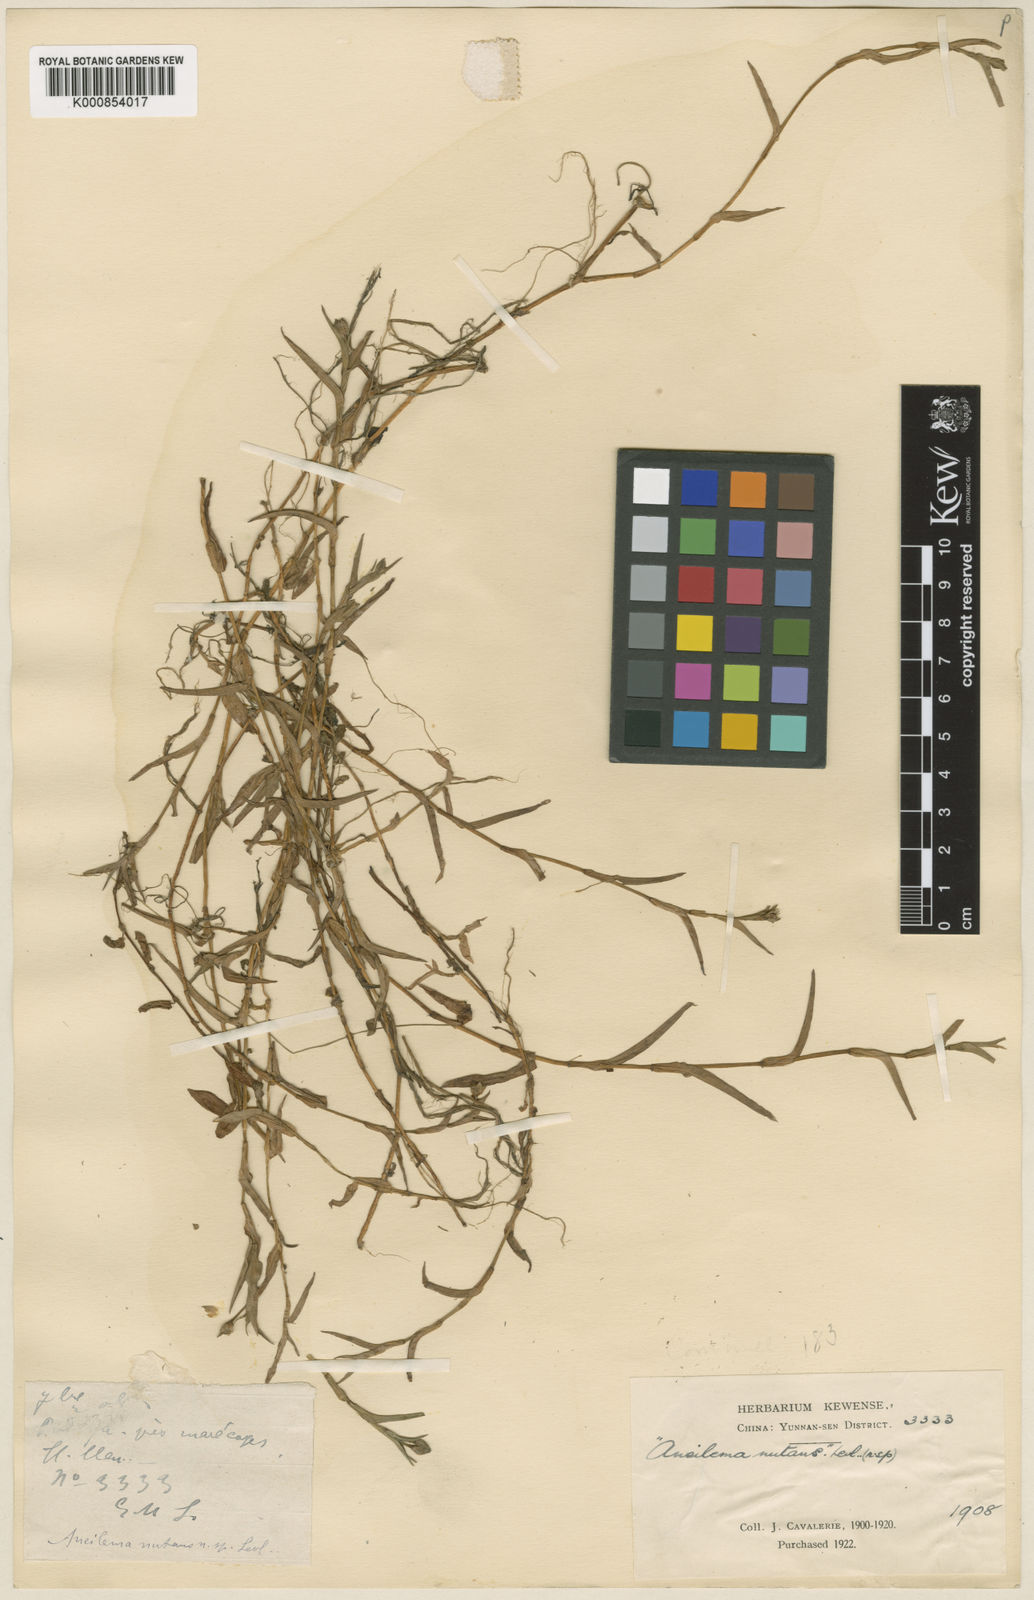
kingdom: Plantae
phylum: Tracheophyta
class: Liliopsida
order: Commelinales
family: Commelinaceae
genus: Murdannia
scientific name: Murdannia
